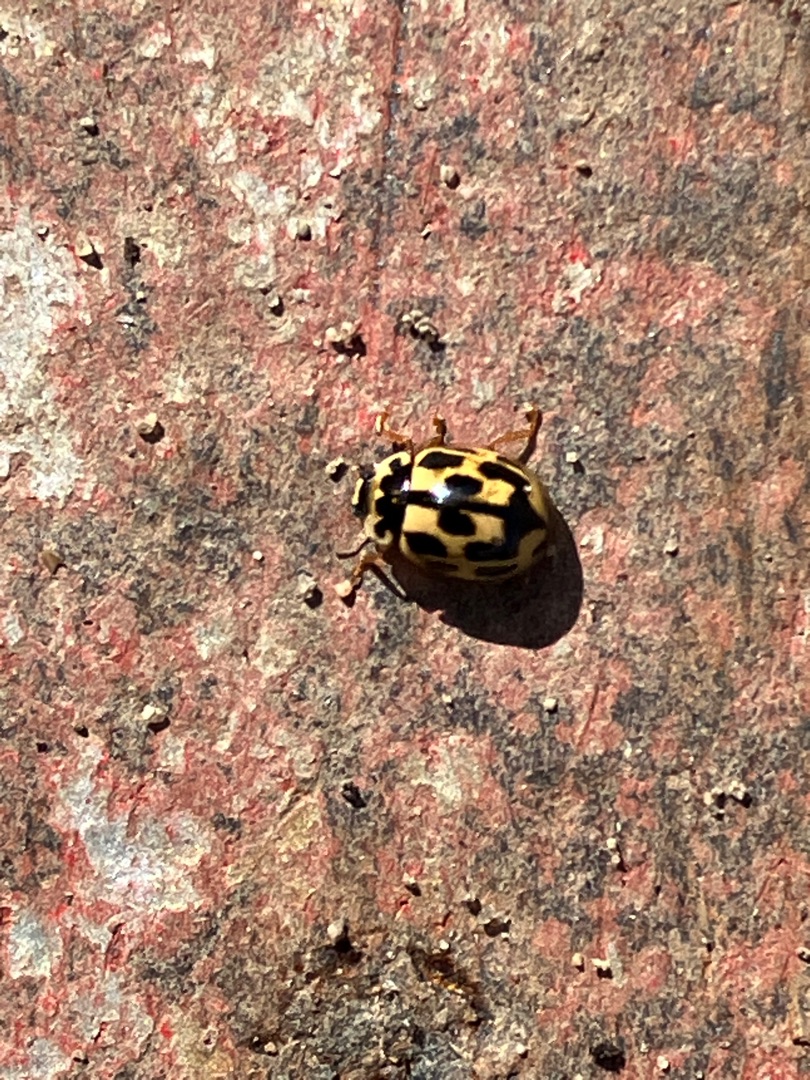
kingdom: Animalia
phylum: Arthropoda
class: Insecta
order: Coleoptera
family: Coccinellidae
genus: Propylaea
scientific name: Propylaea quatuordecimpunctata
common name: Skakbræt
